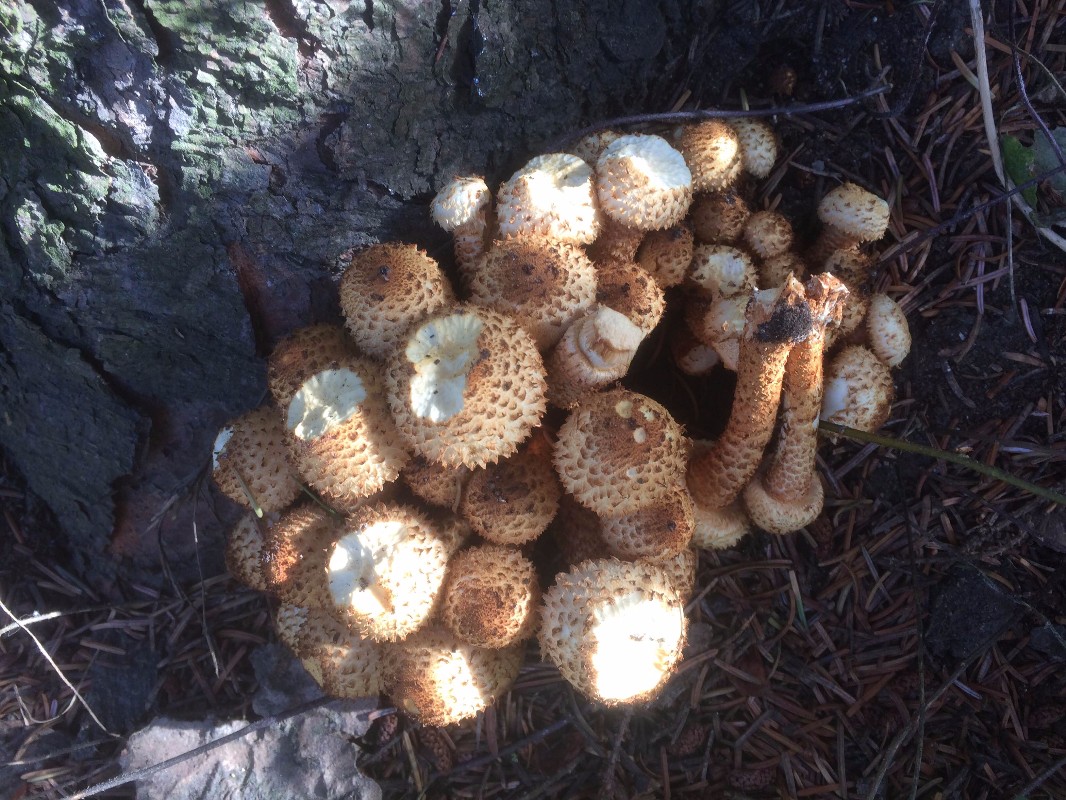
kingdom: Fungi
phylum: Basidiomycota
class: Agaricomycetes
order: Agaricales
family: Strophariaceae
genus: Pholiota
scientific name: Pholiota squarrosa
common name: krumskællet skælhat
